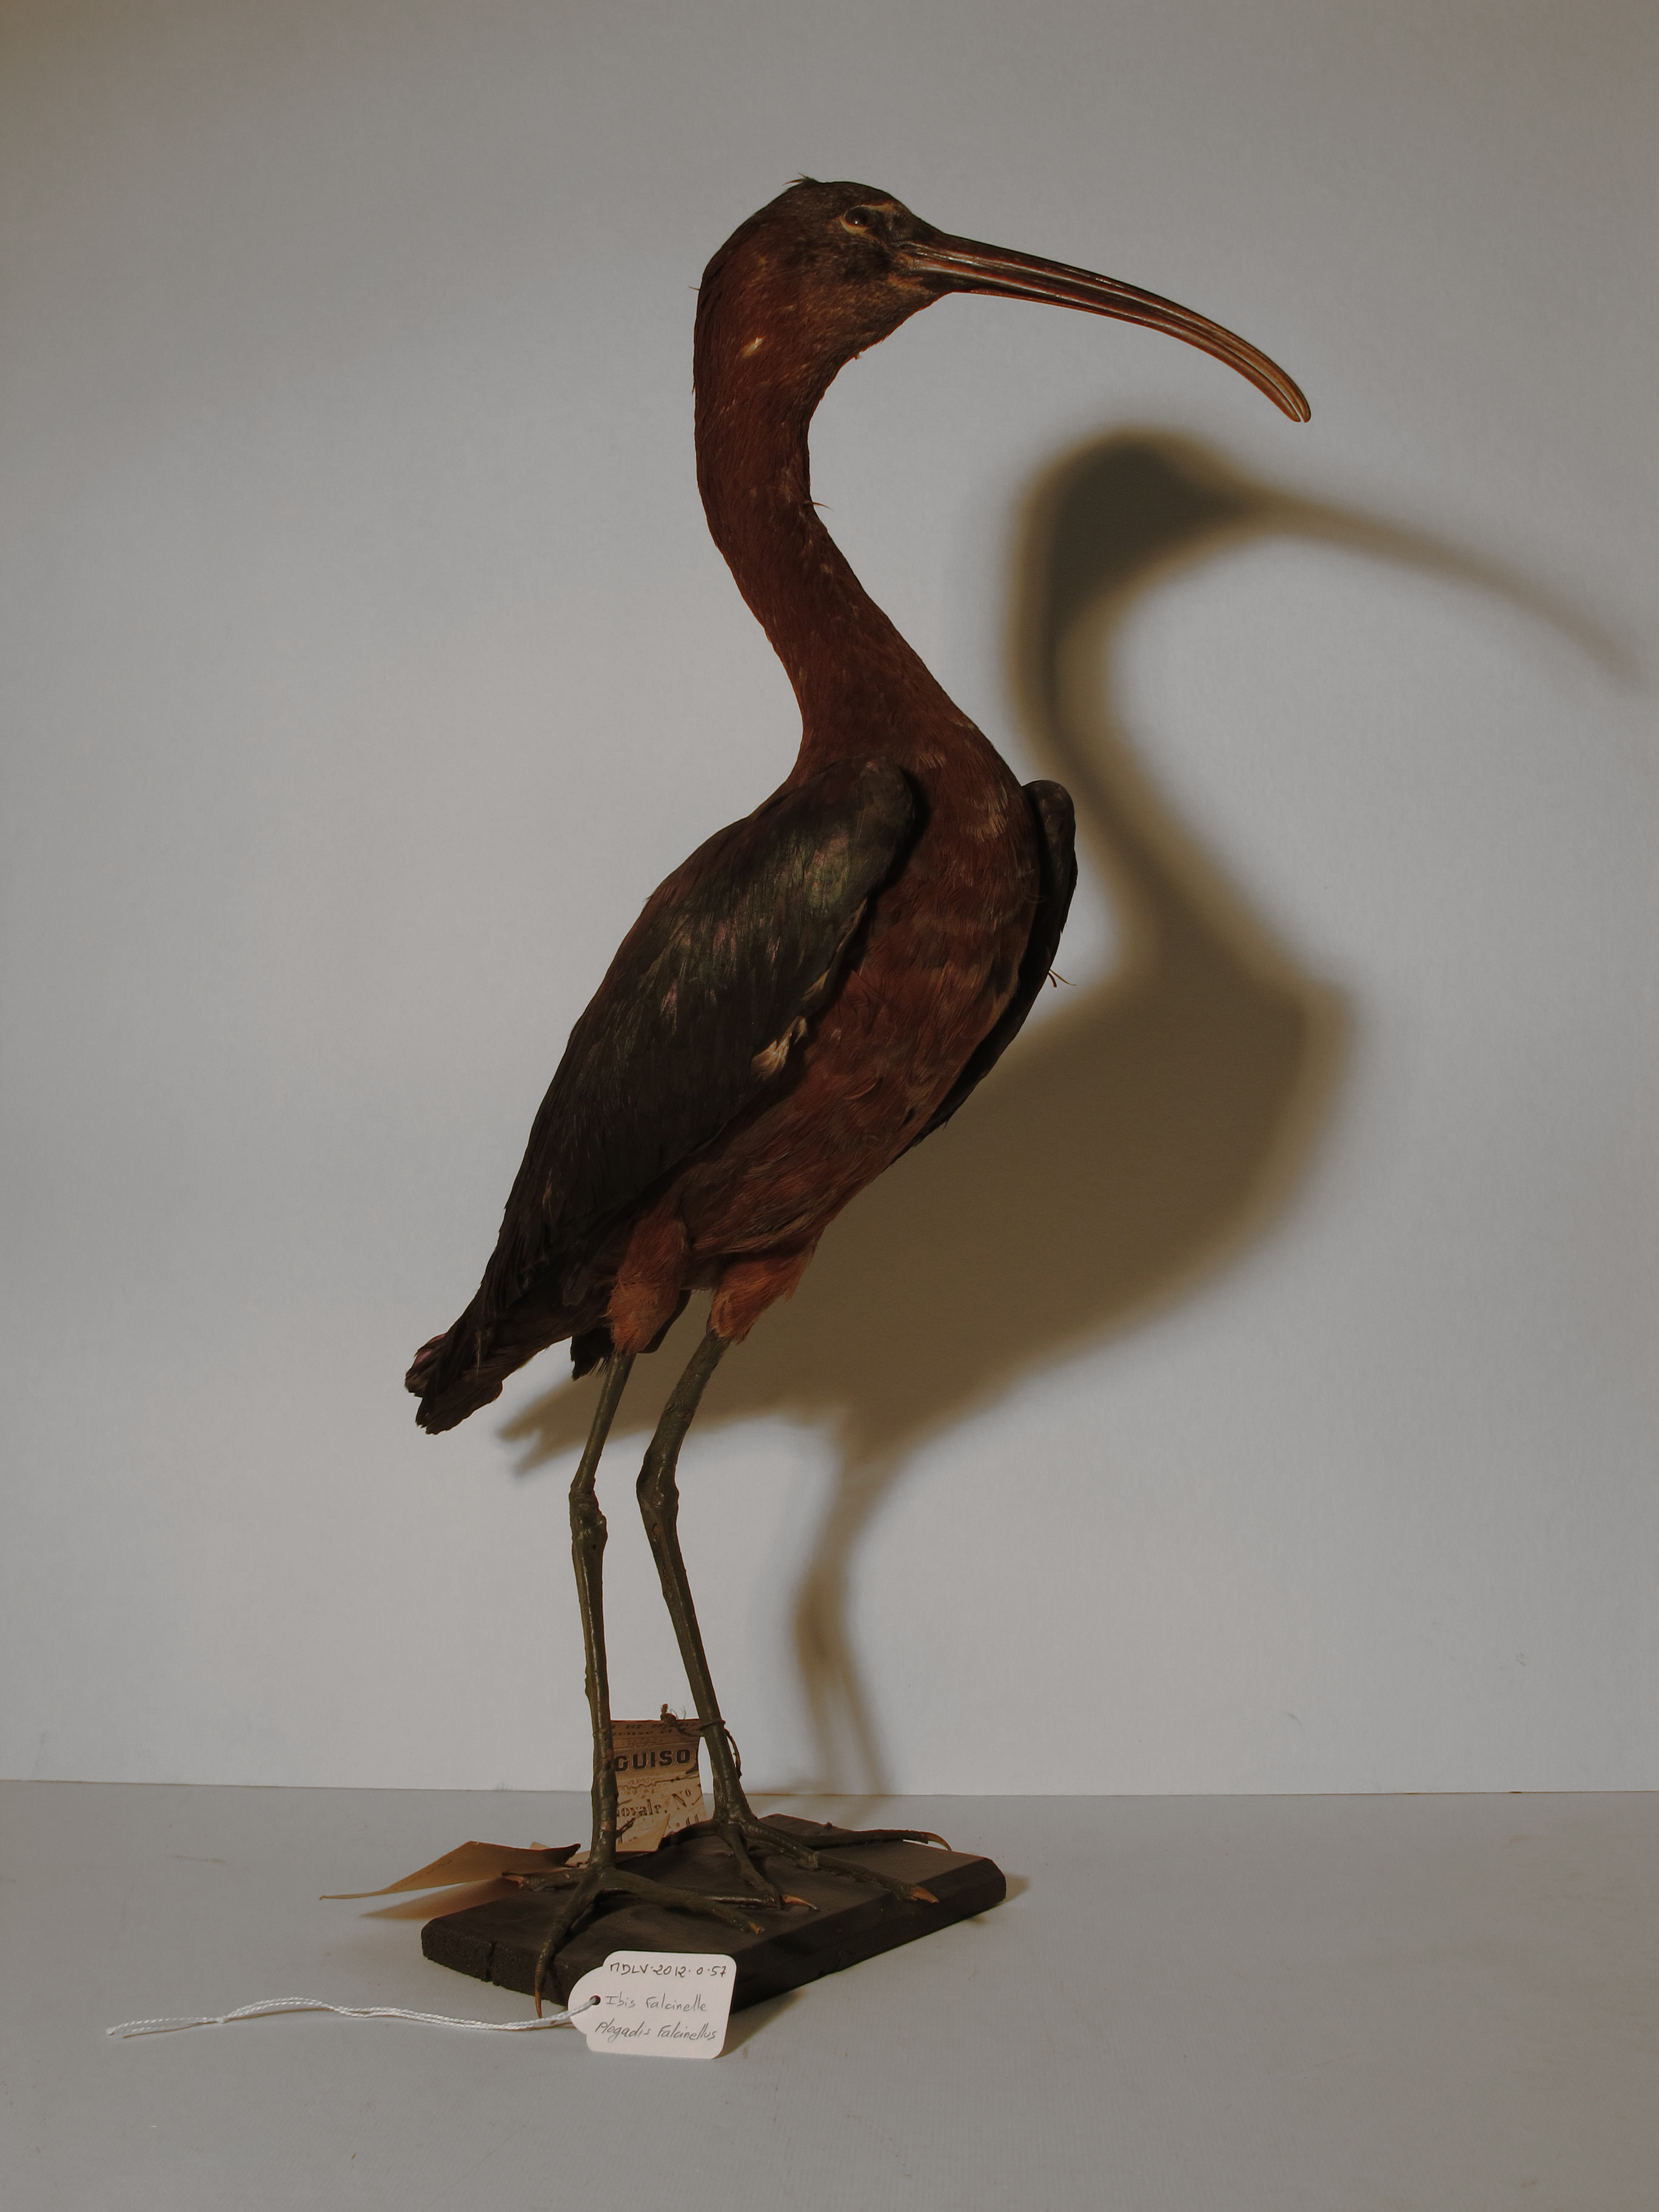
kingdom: Animalia
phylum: Chordata
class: Aves
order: Pelecaniformes
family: Threskiornithidae
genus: Plegadis
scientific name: Plegadis falcinellus
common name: Glossy Ibis
